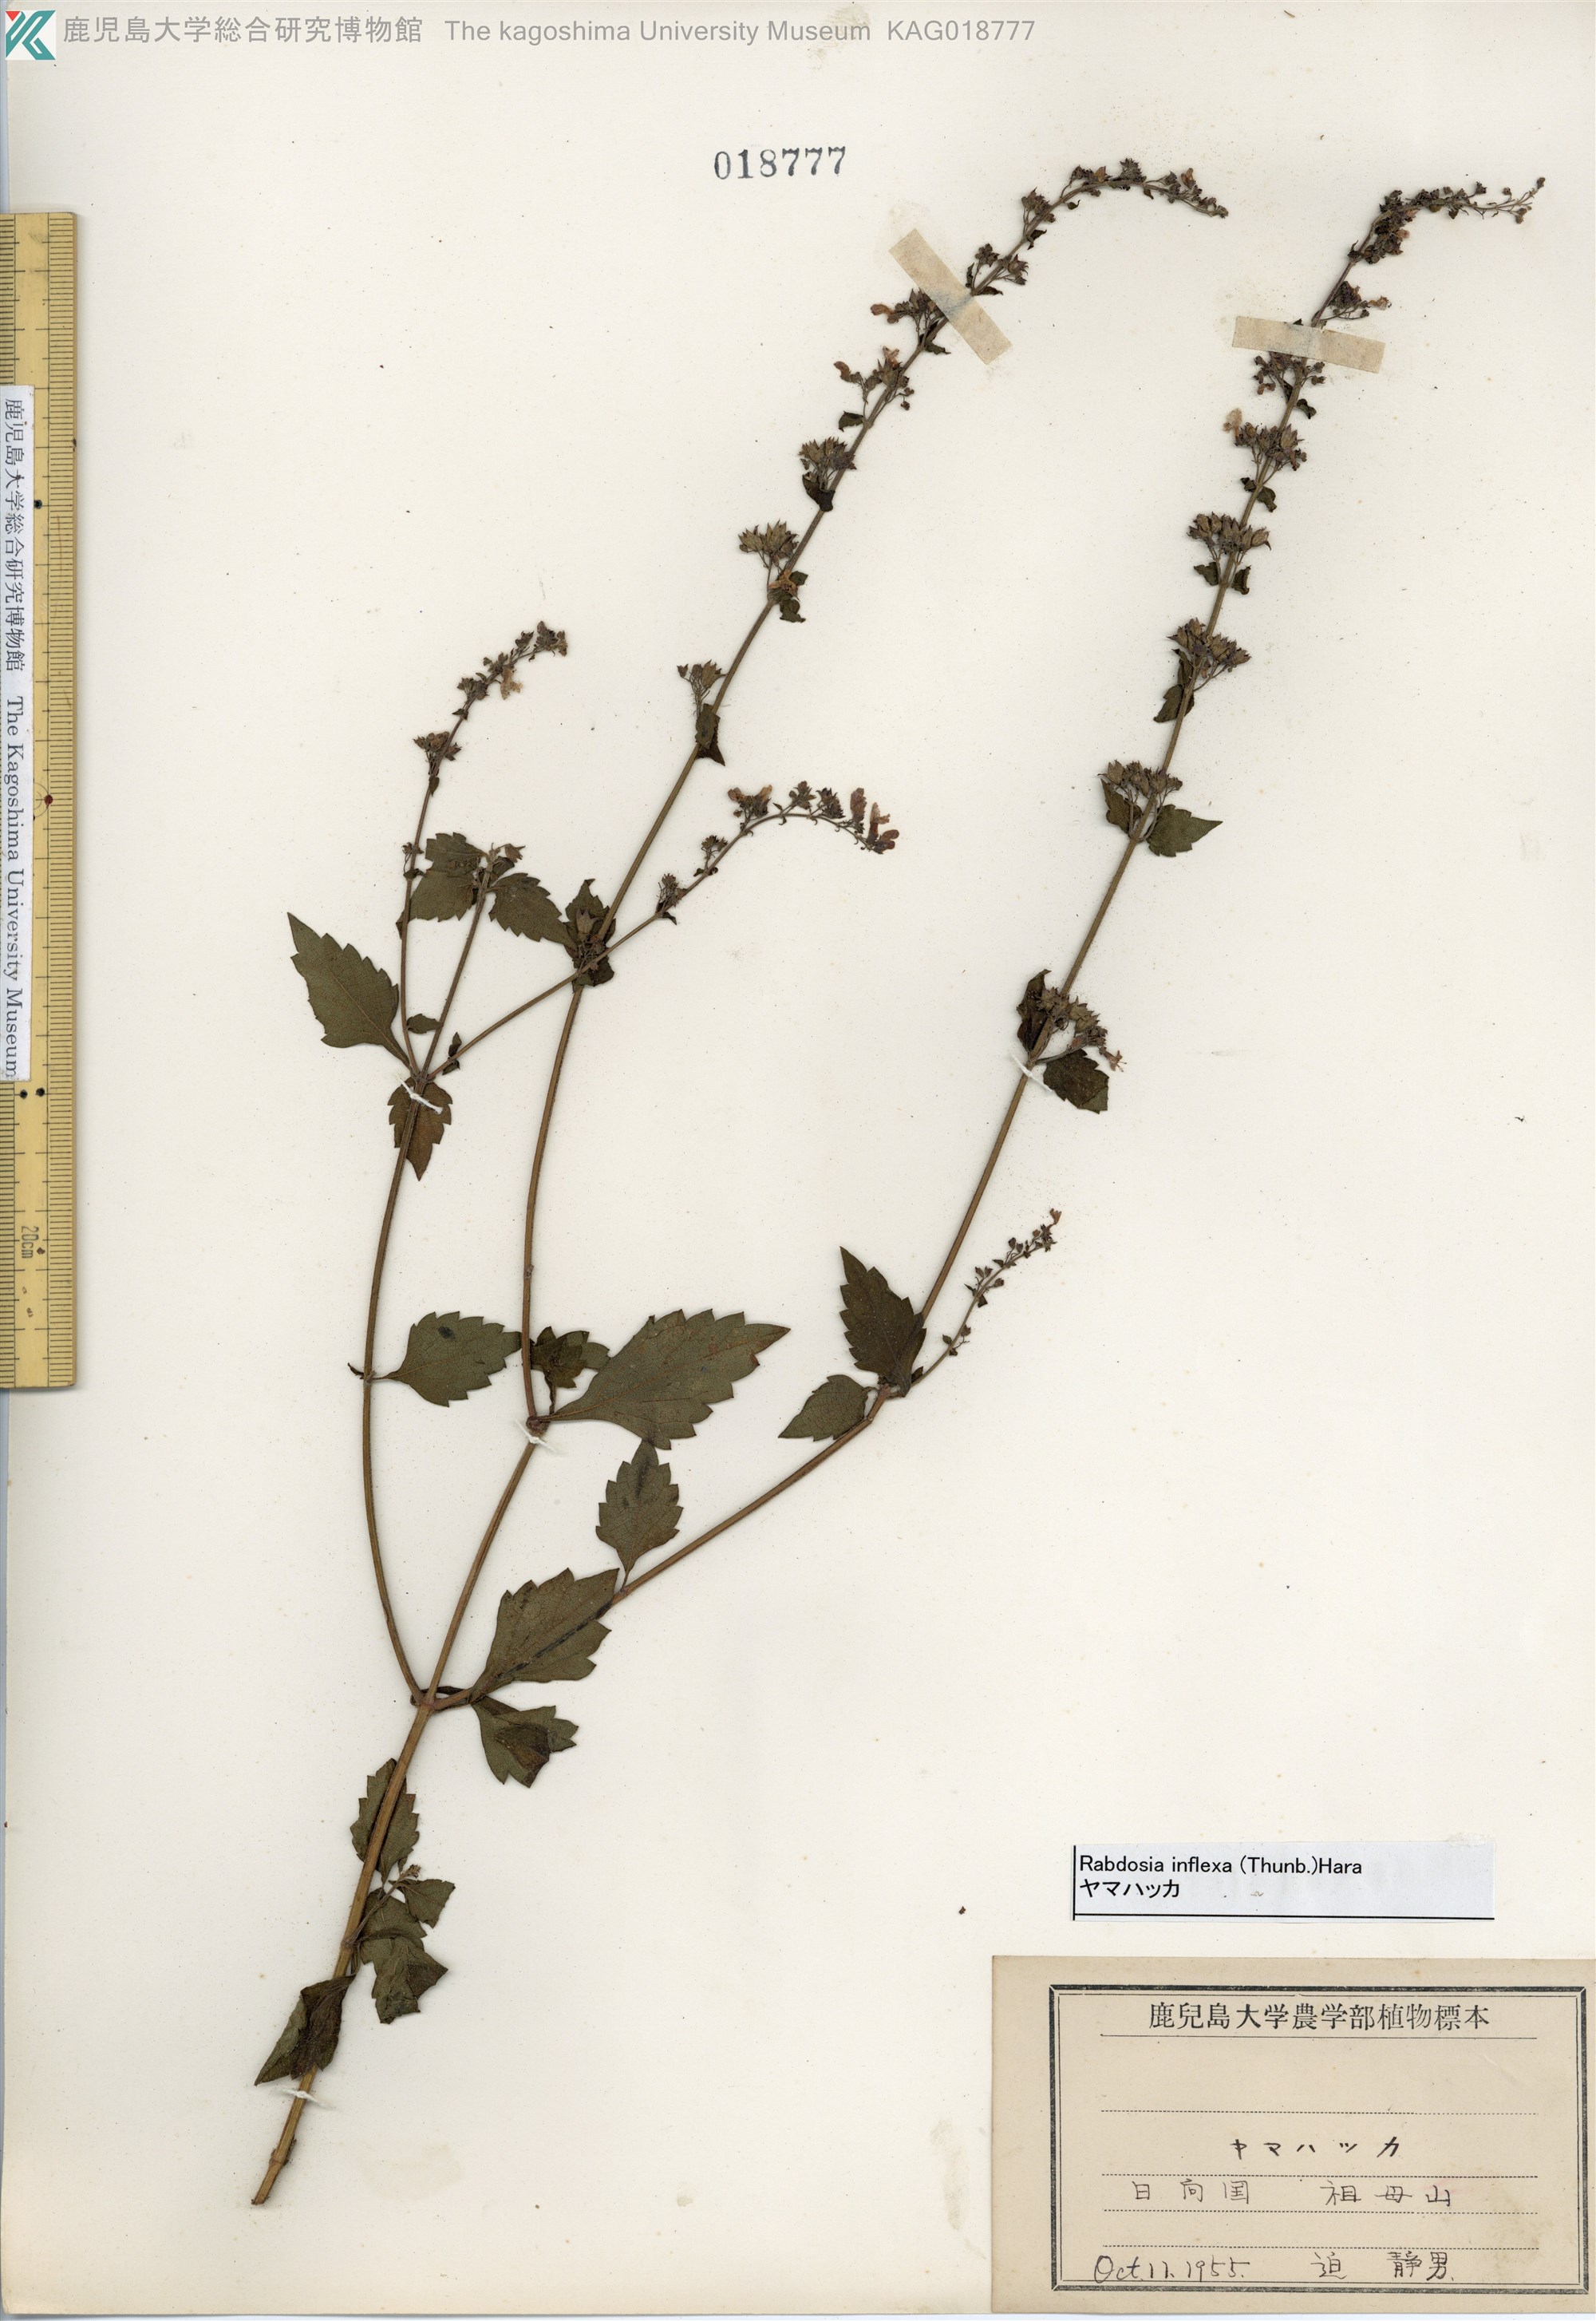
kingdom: Plantae
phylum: Tracheophyta
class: Magnoliopsida
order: Lamiales
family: Lamiaceae
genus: Isodon
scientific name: Isodon inflexus
